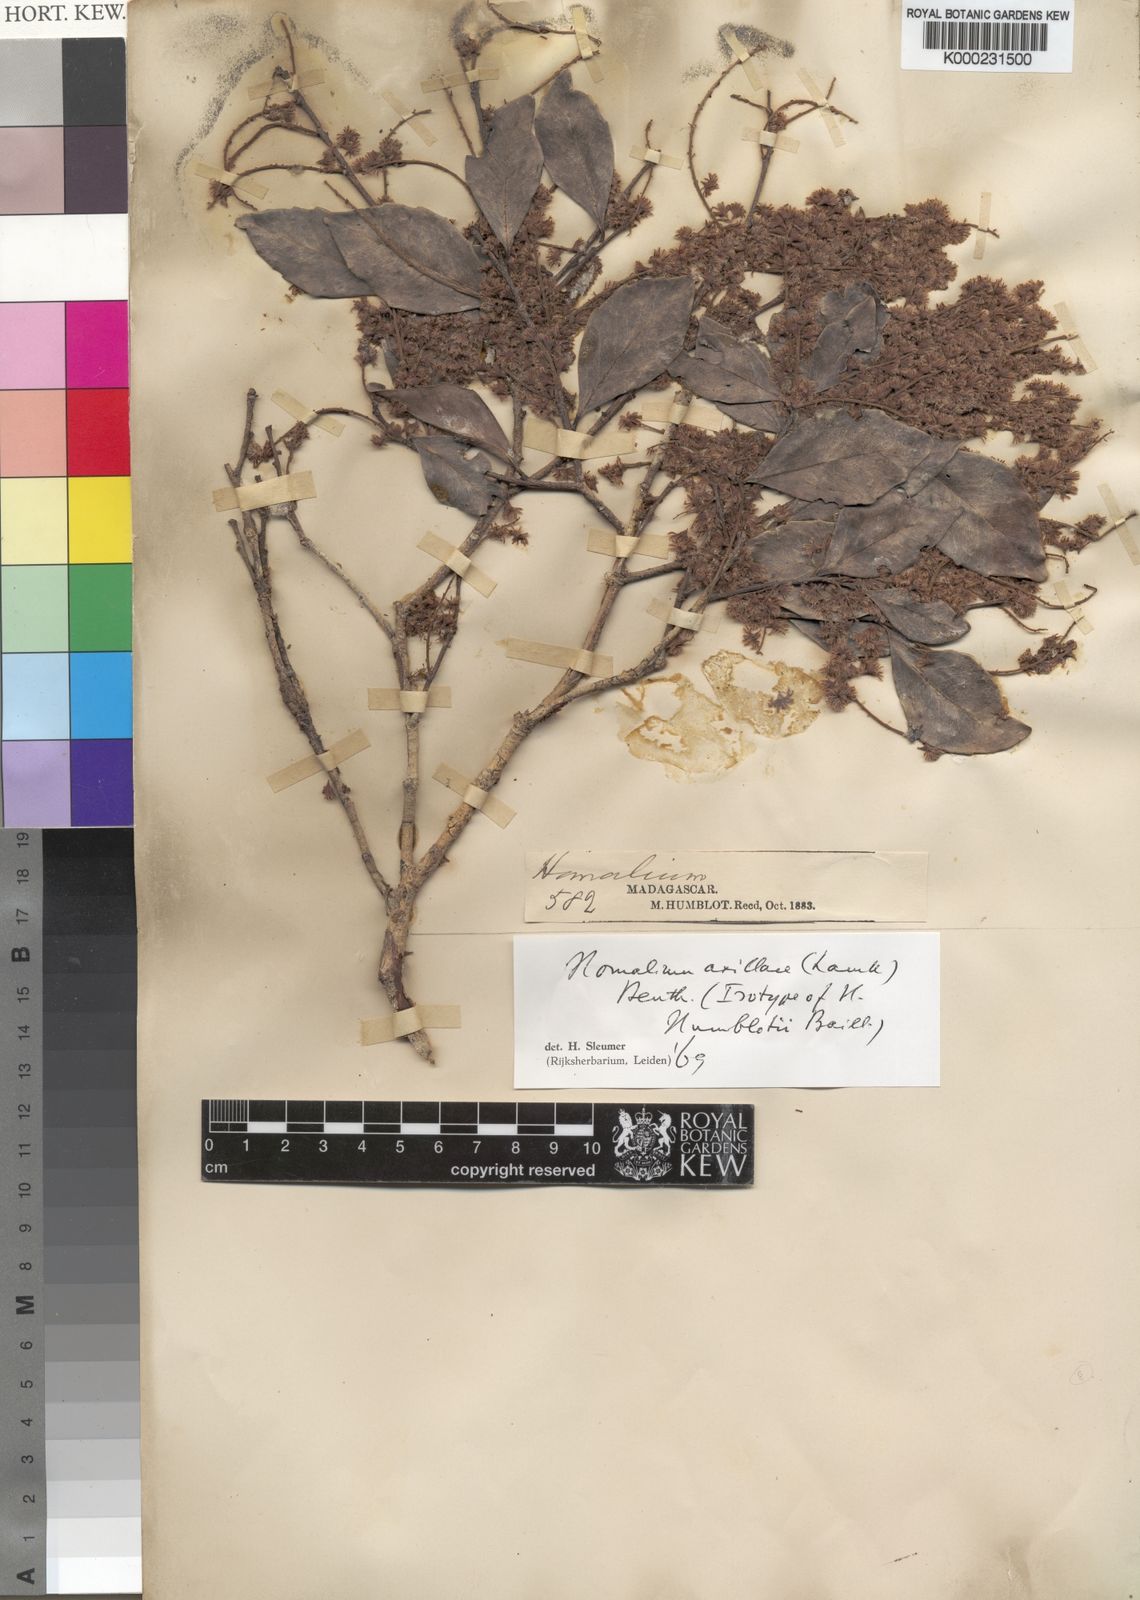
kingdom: Plantae
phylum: Tracheophyta
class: Magnoliopsida
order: Malpighiales
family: Salicaceae
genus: Homalium
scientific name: Homalium axillare
